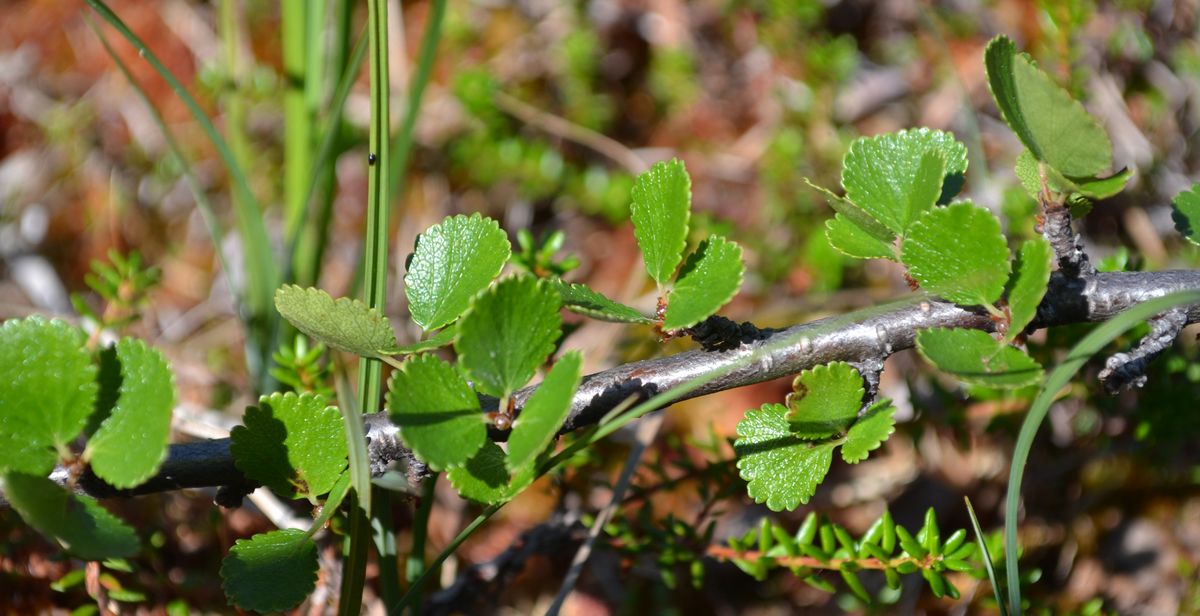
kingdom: Plantae
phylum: Tracheophyta
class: Magnoliopsida
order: Fagales
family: Betulaceae
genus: Betula
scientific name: Betula nana
